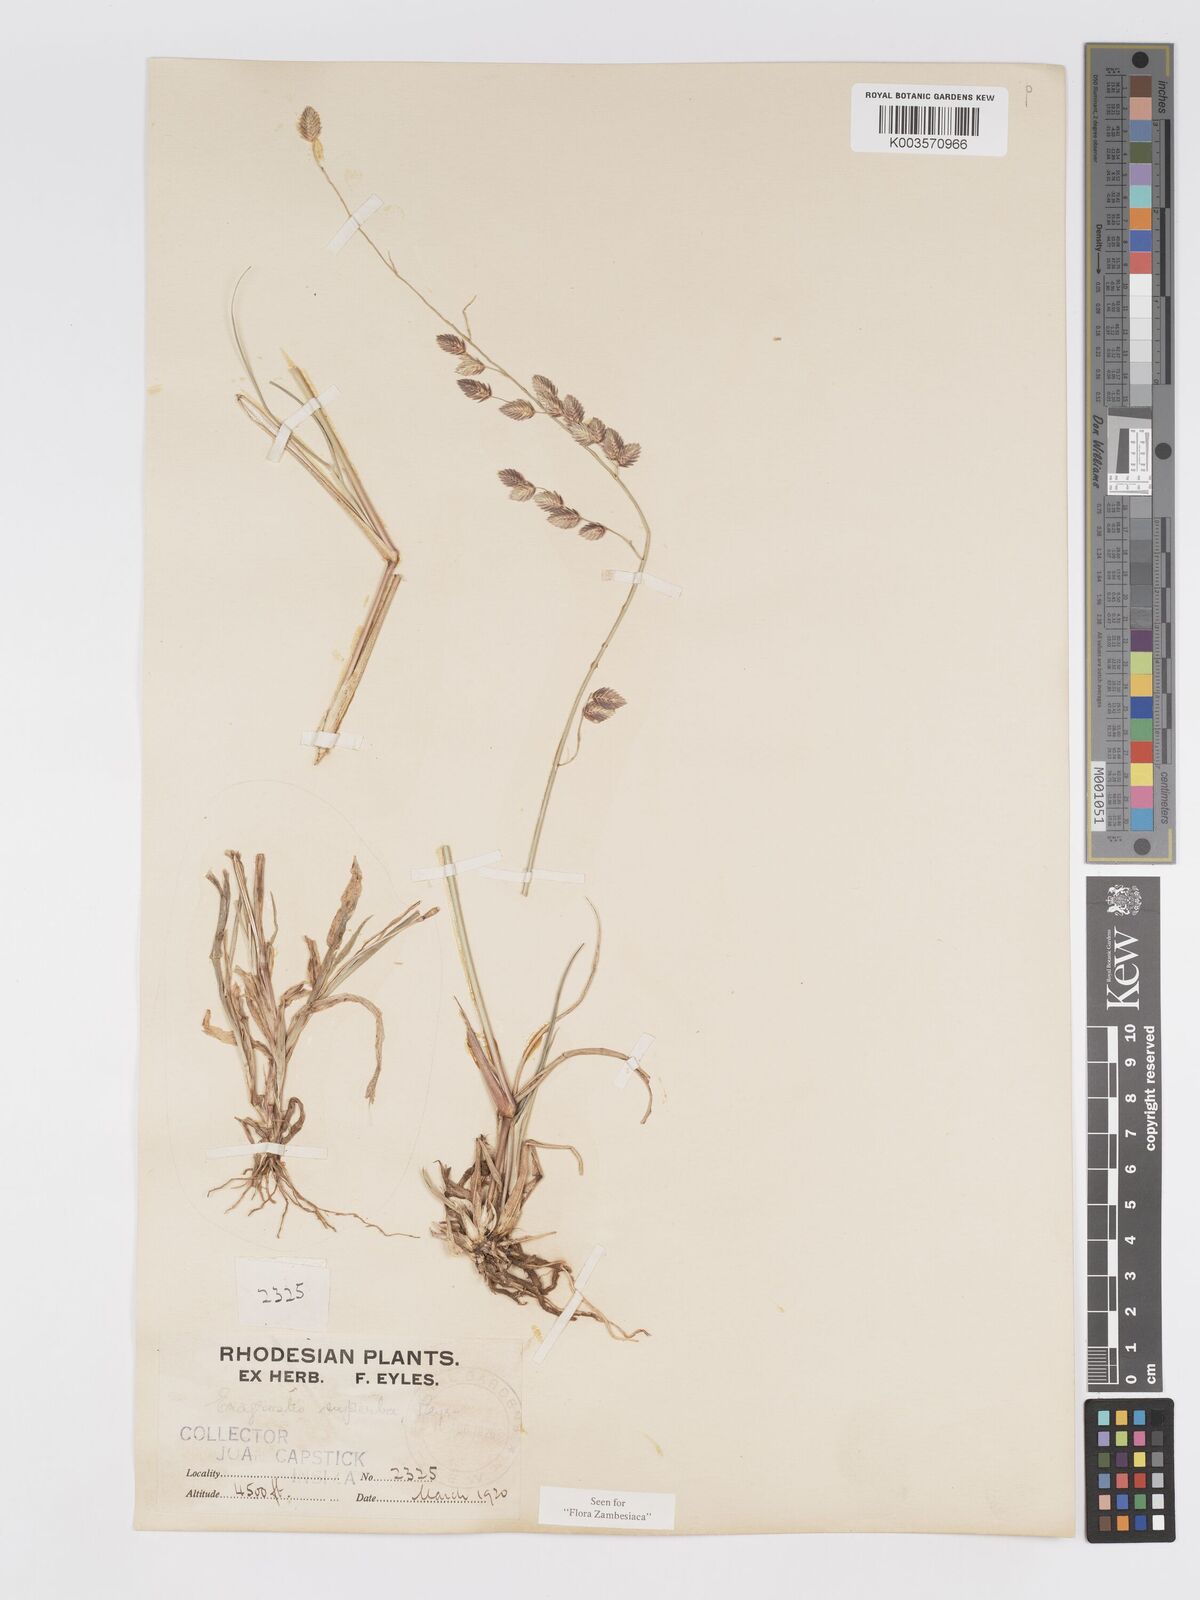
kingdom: Plantae
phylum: Tracheophyta
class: Liliopsida
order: Poales
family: Poaceae
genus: Eragrostis
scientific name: Eragrostis superba
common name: Wilman lovegrass
